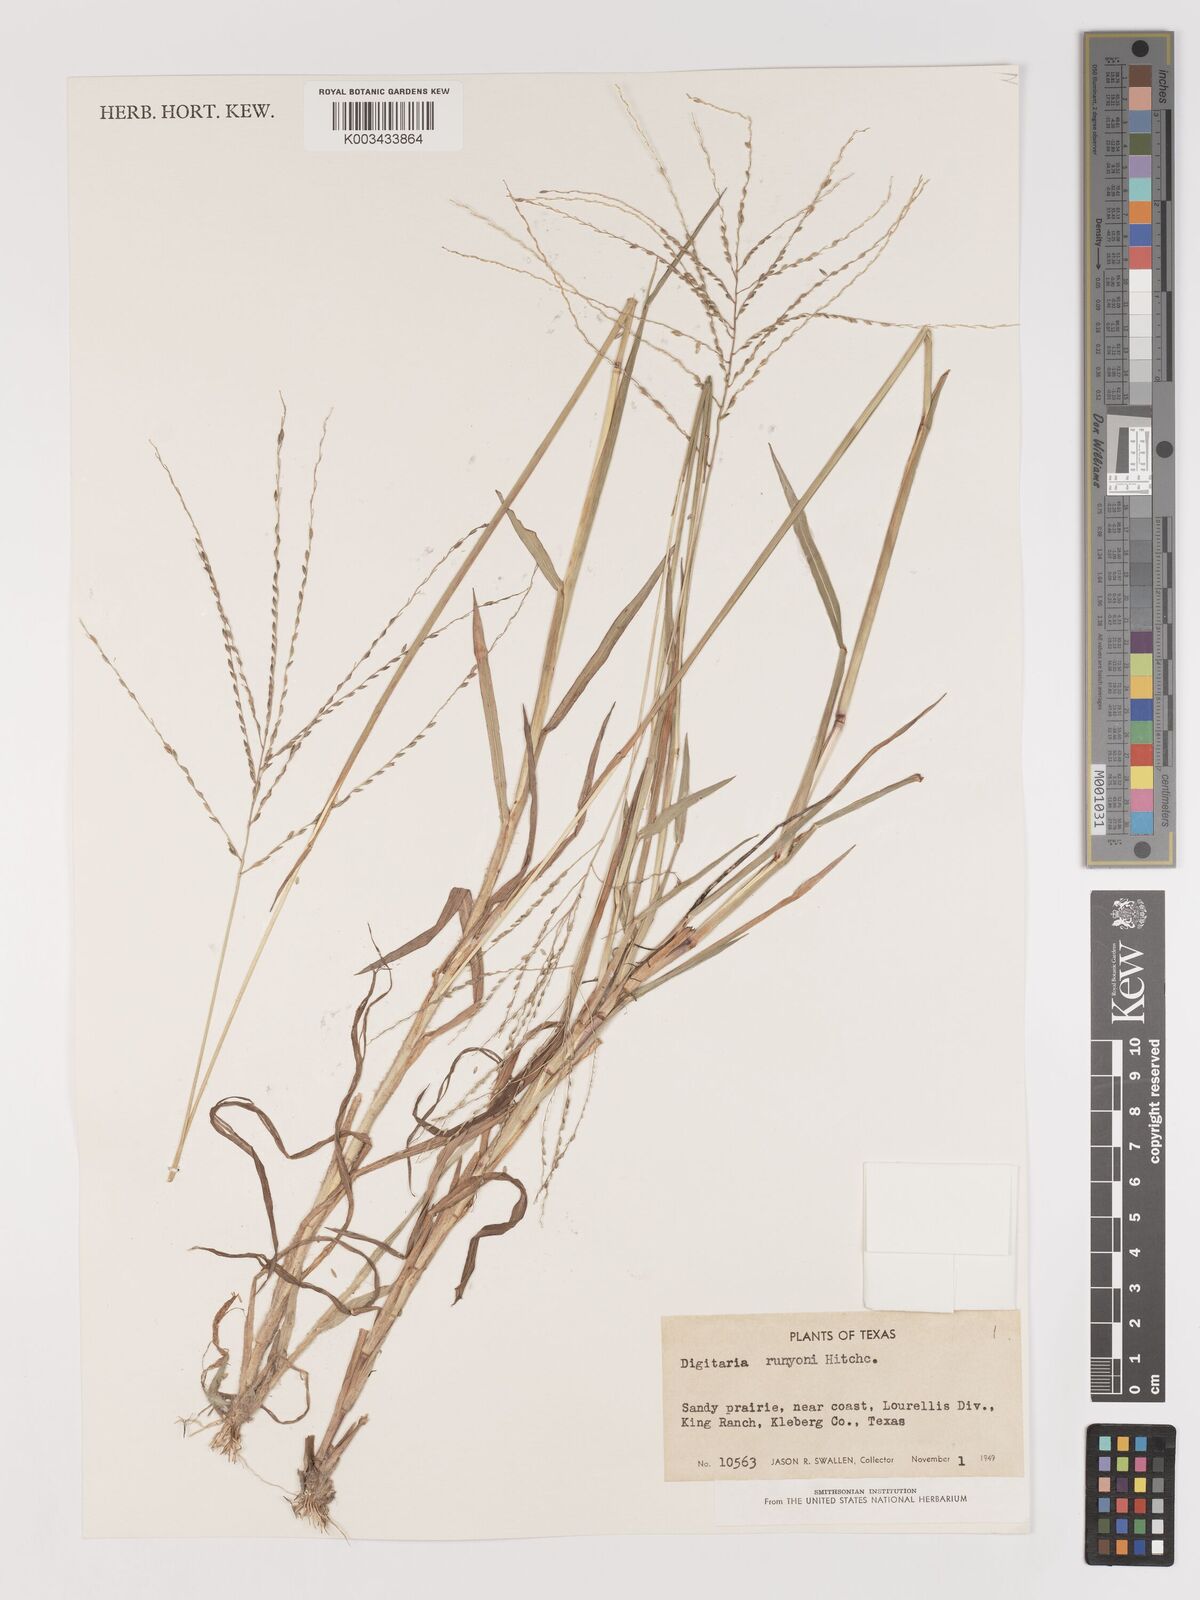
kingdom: Plantae
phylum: Tracheophyta
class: Liliopsida
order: Poales
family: Poaceae
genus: Digitaria
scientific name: Digitaria texana
